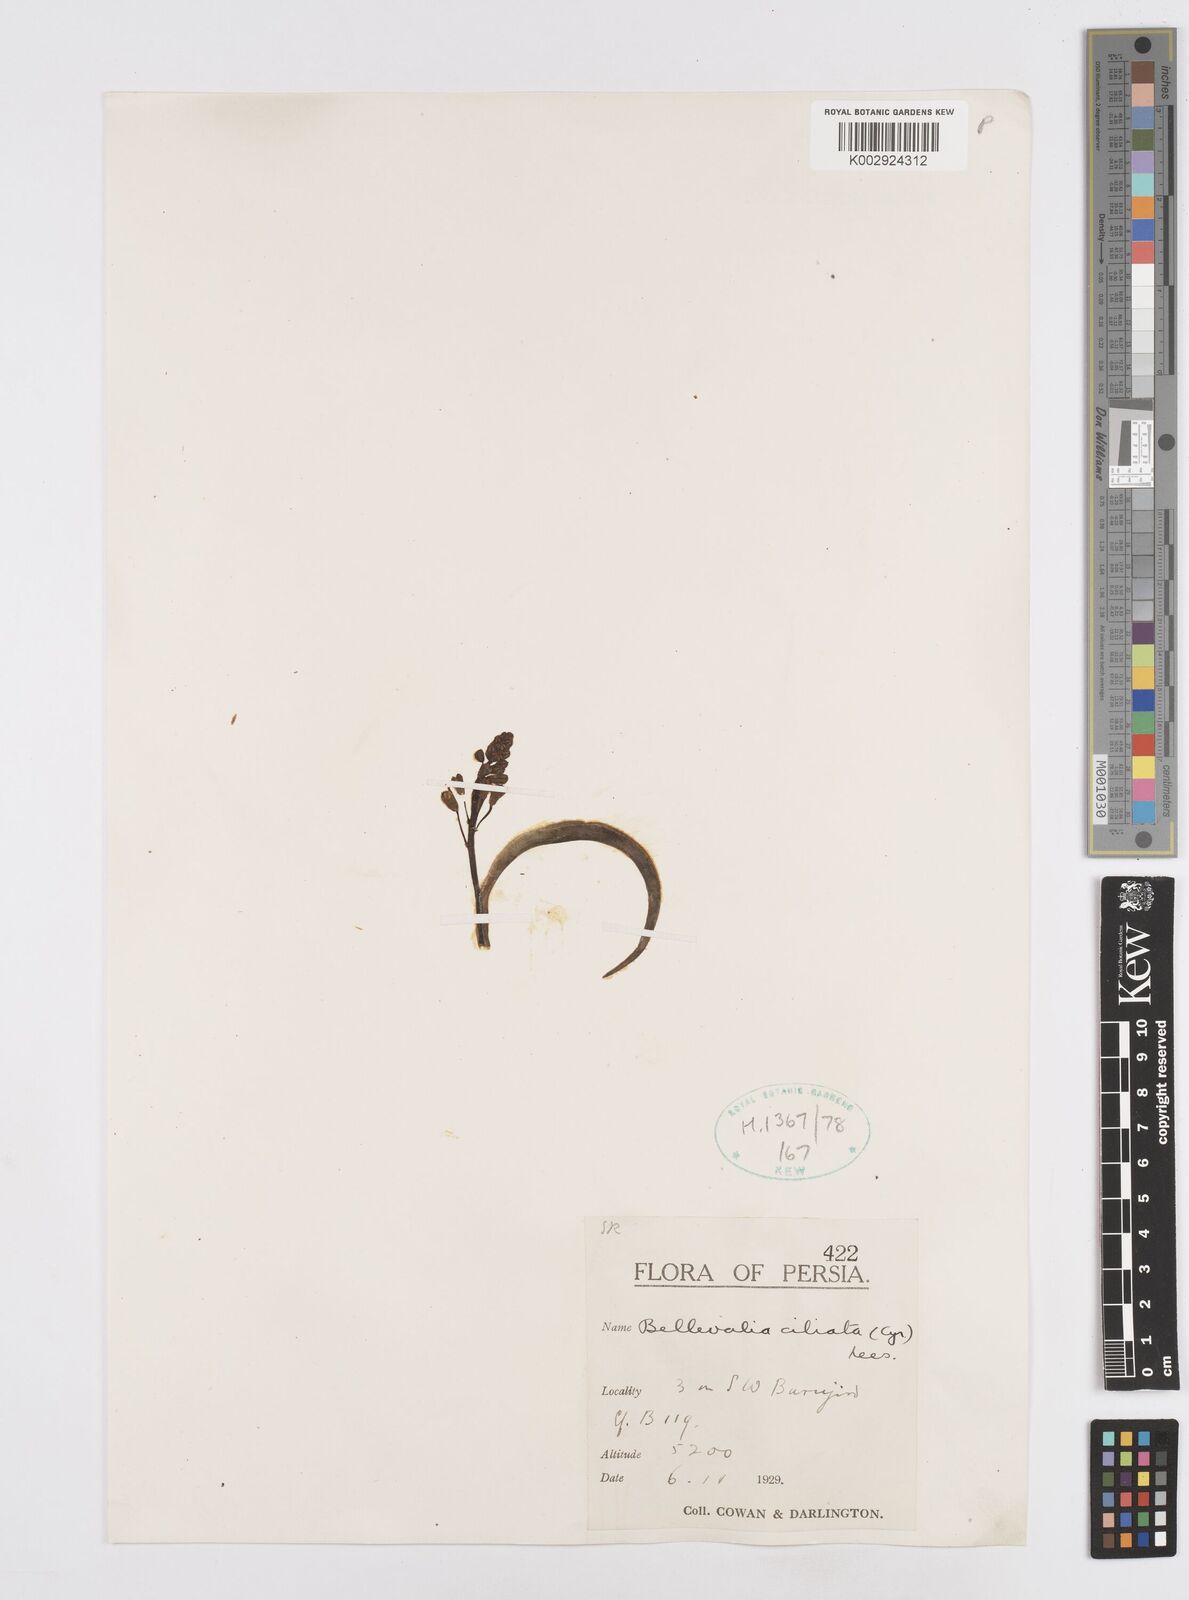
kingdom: Plantae
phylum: Tracheophyta
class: Liliopsida
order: Asparagales
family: Asparagaceae
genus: Bellevalia
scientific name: Bellevalia ciliata
